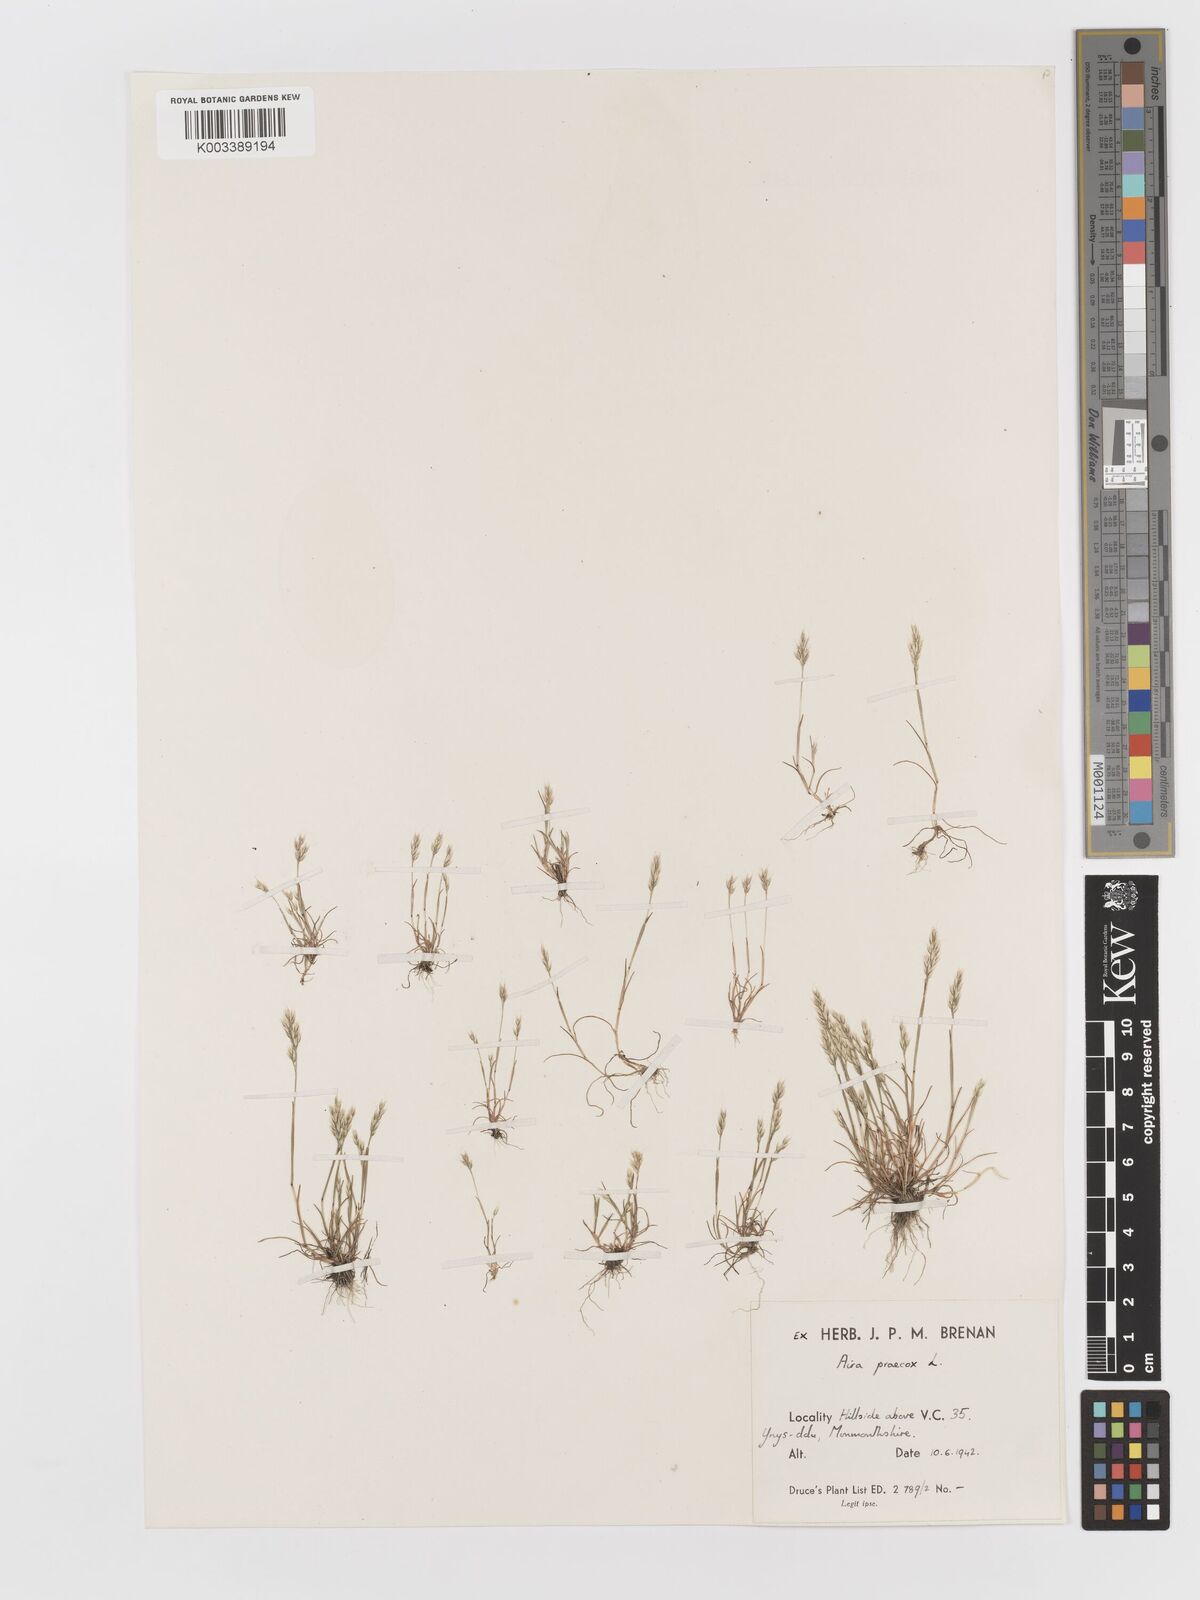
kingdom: Plantae
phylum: Tracheophyta
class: Liliopsida
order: Poales
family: Poaceae
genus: Aira
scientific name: Aira praecox
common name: Early hair-grass
